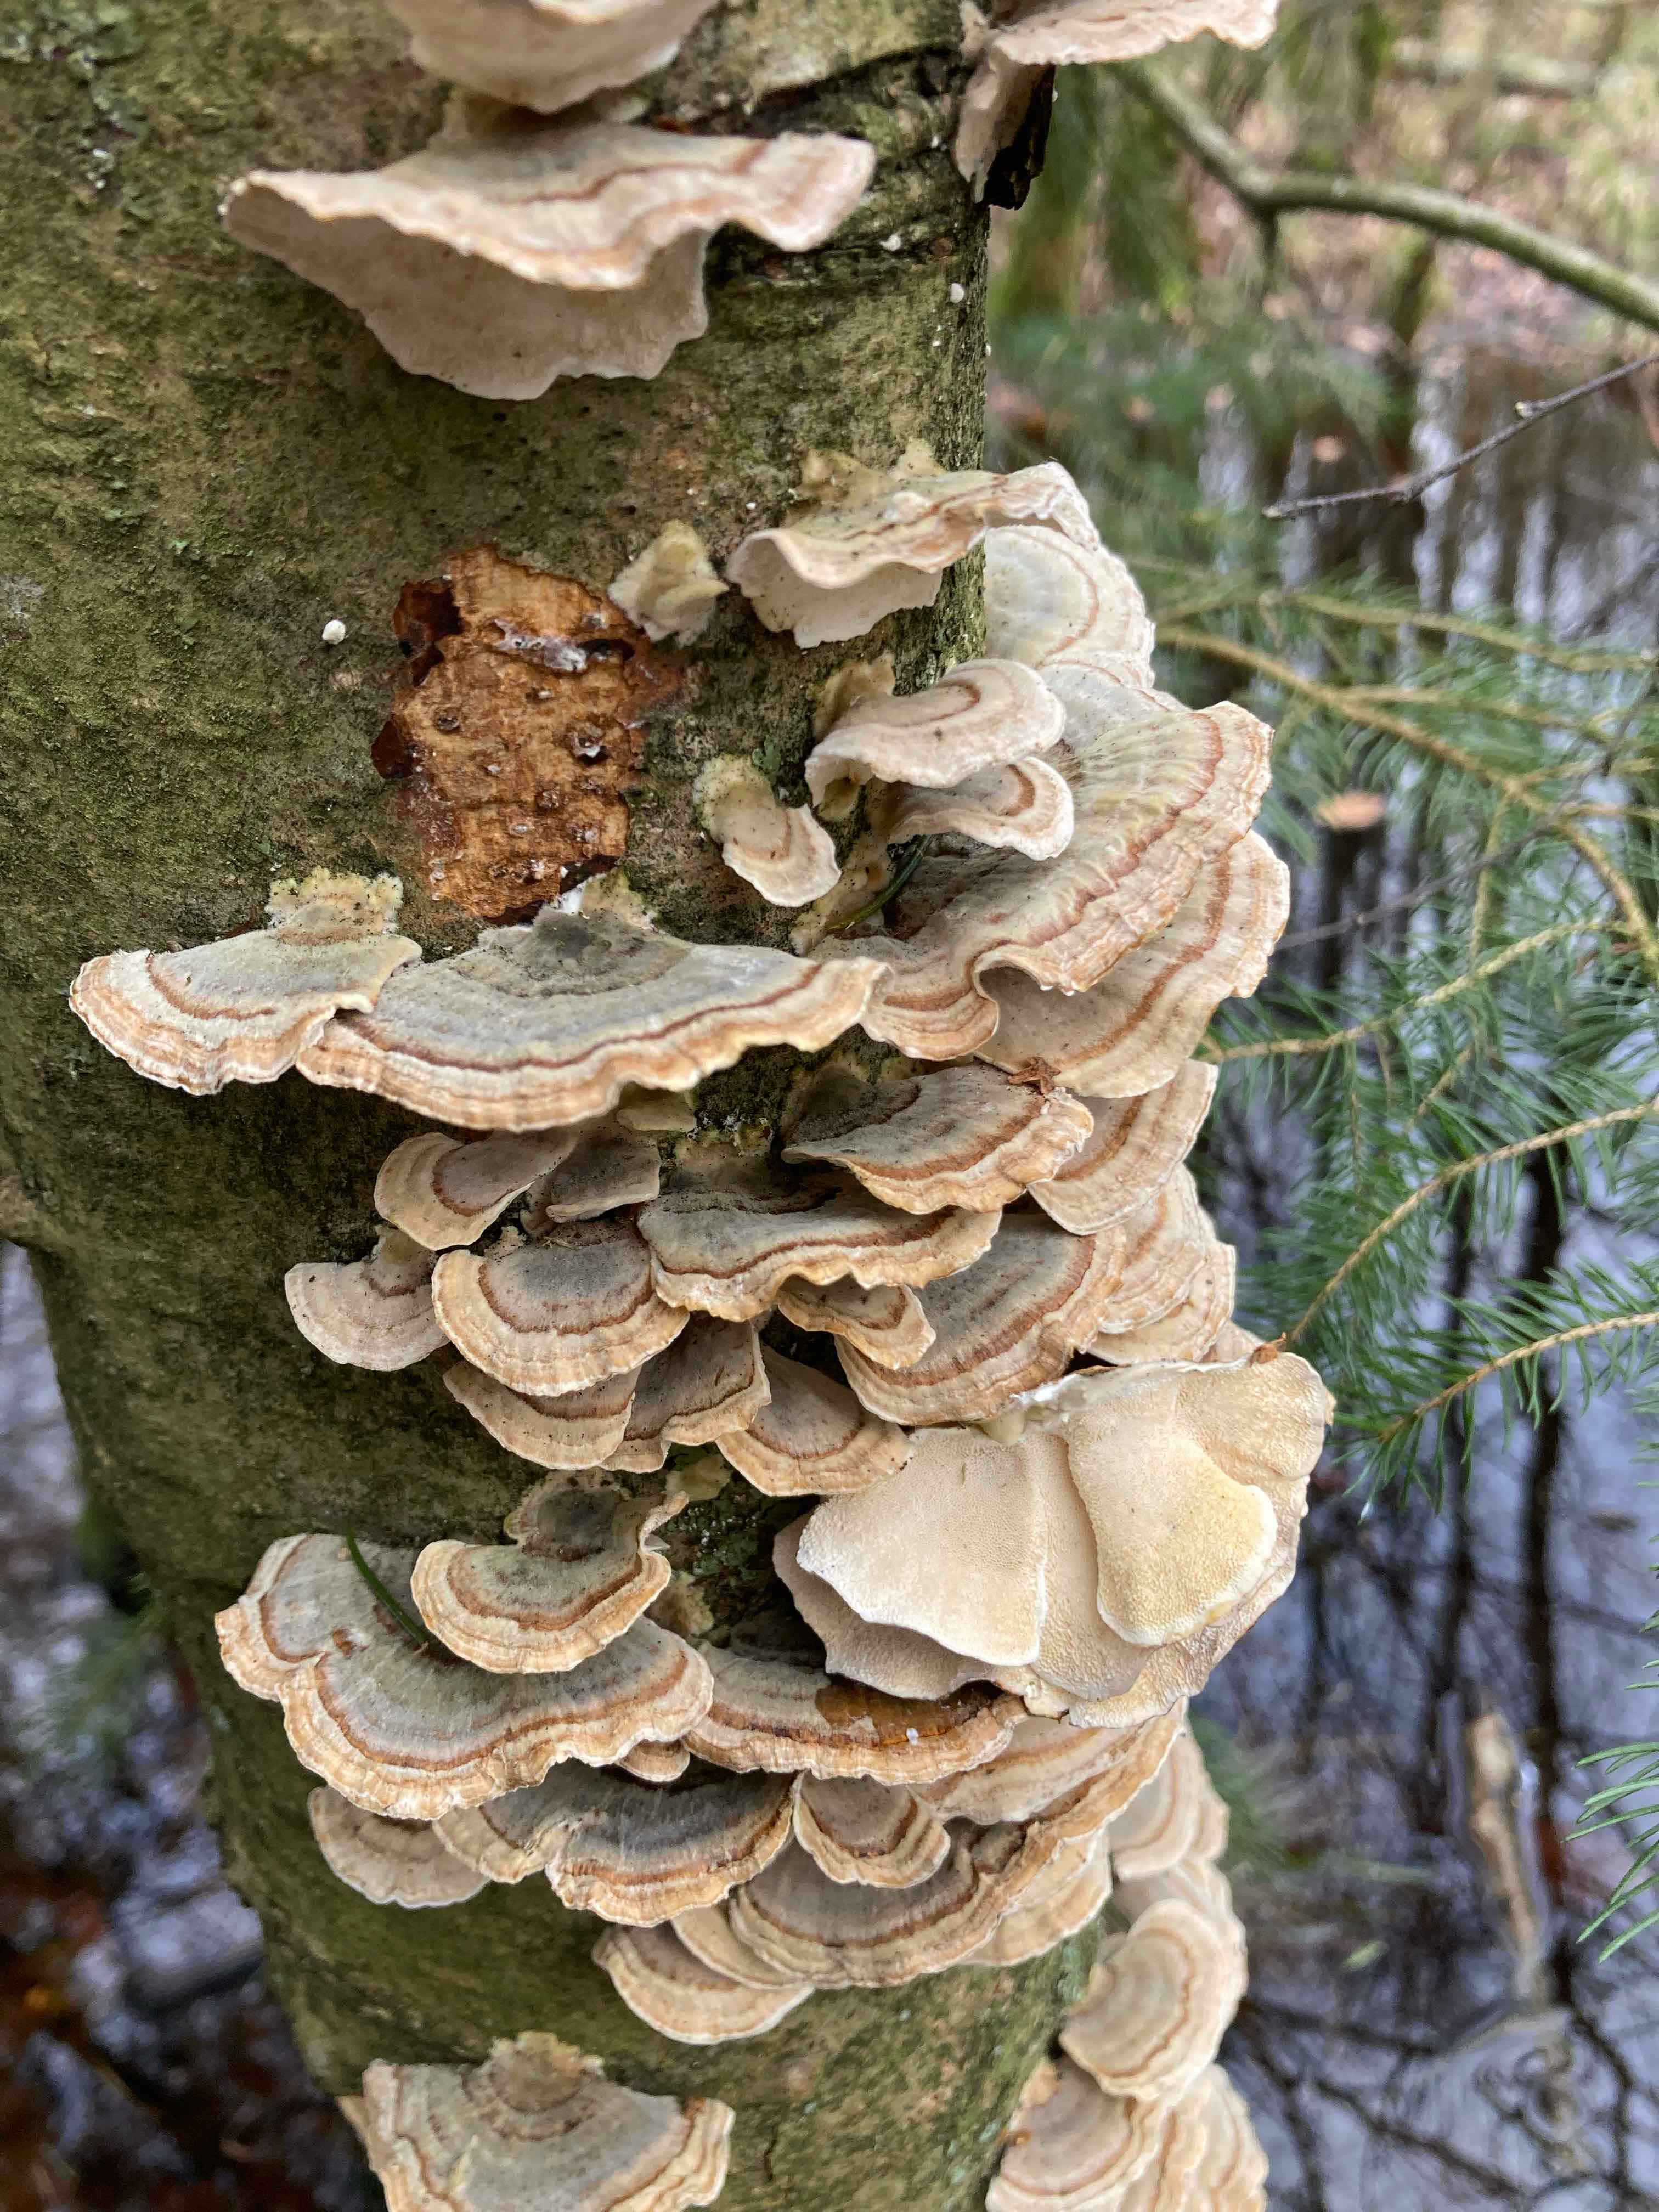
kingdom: Fungi
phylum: Basidiomycota
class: Agaricomycetes
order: Polyporales
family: Polyporaceae
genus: Trametes
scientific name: Trametes versicolor
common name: broget læderporesvamp
